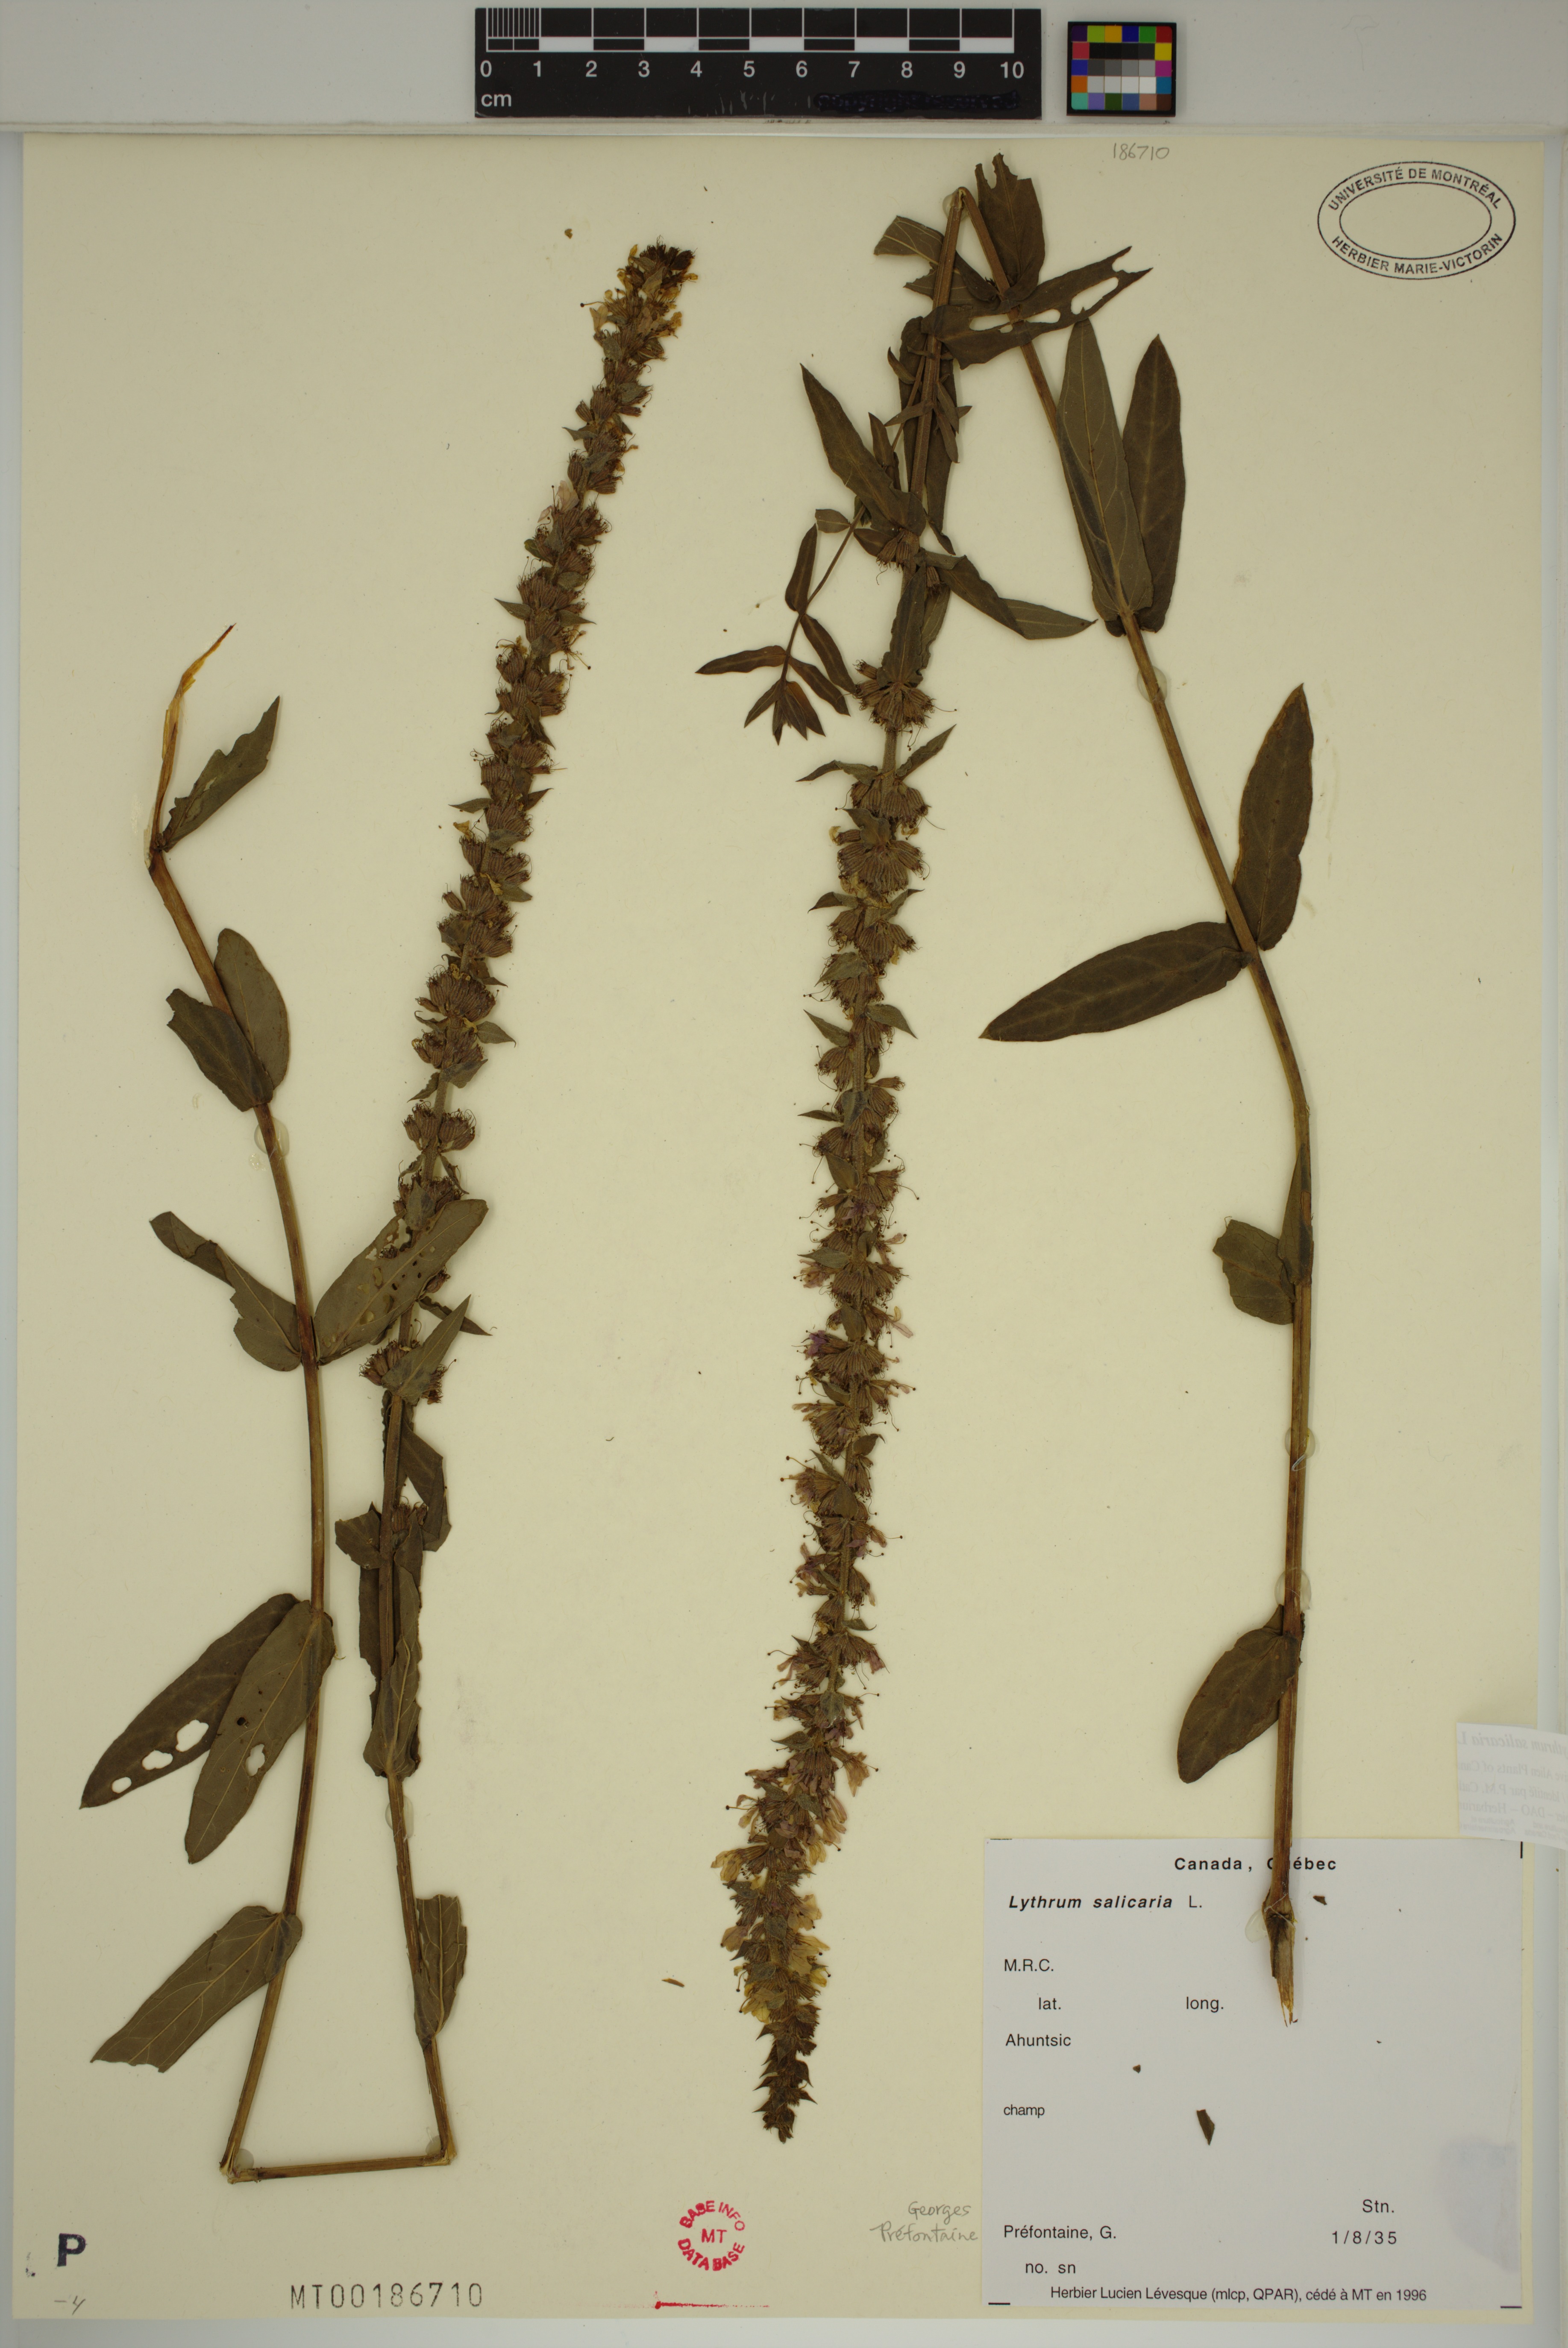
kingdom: Plantae
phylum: Tracheophyta
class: Magnoliopsida
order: Myrtales
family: Lythraceae
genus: Lythrum
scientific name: Lythrum salicaria
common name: Purple loosestrife
